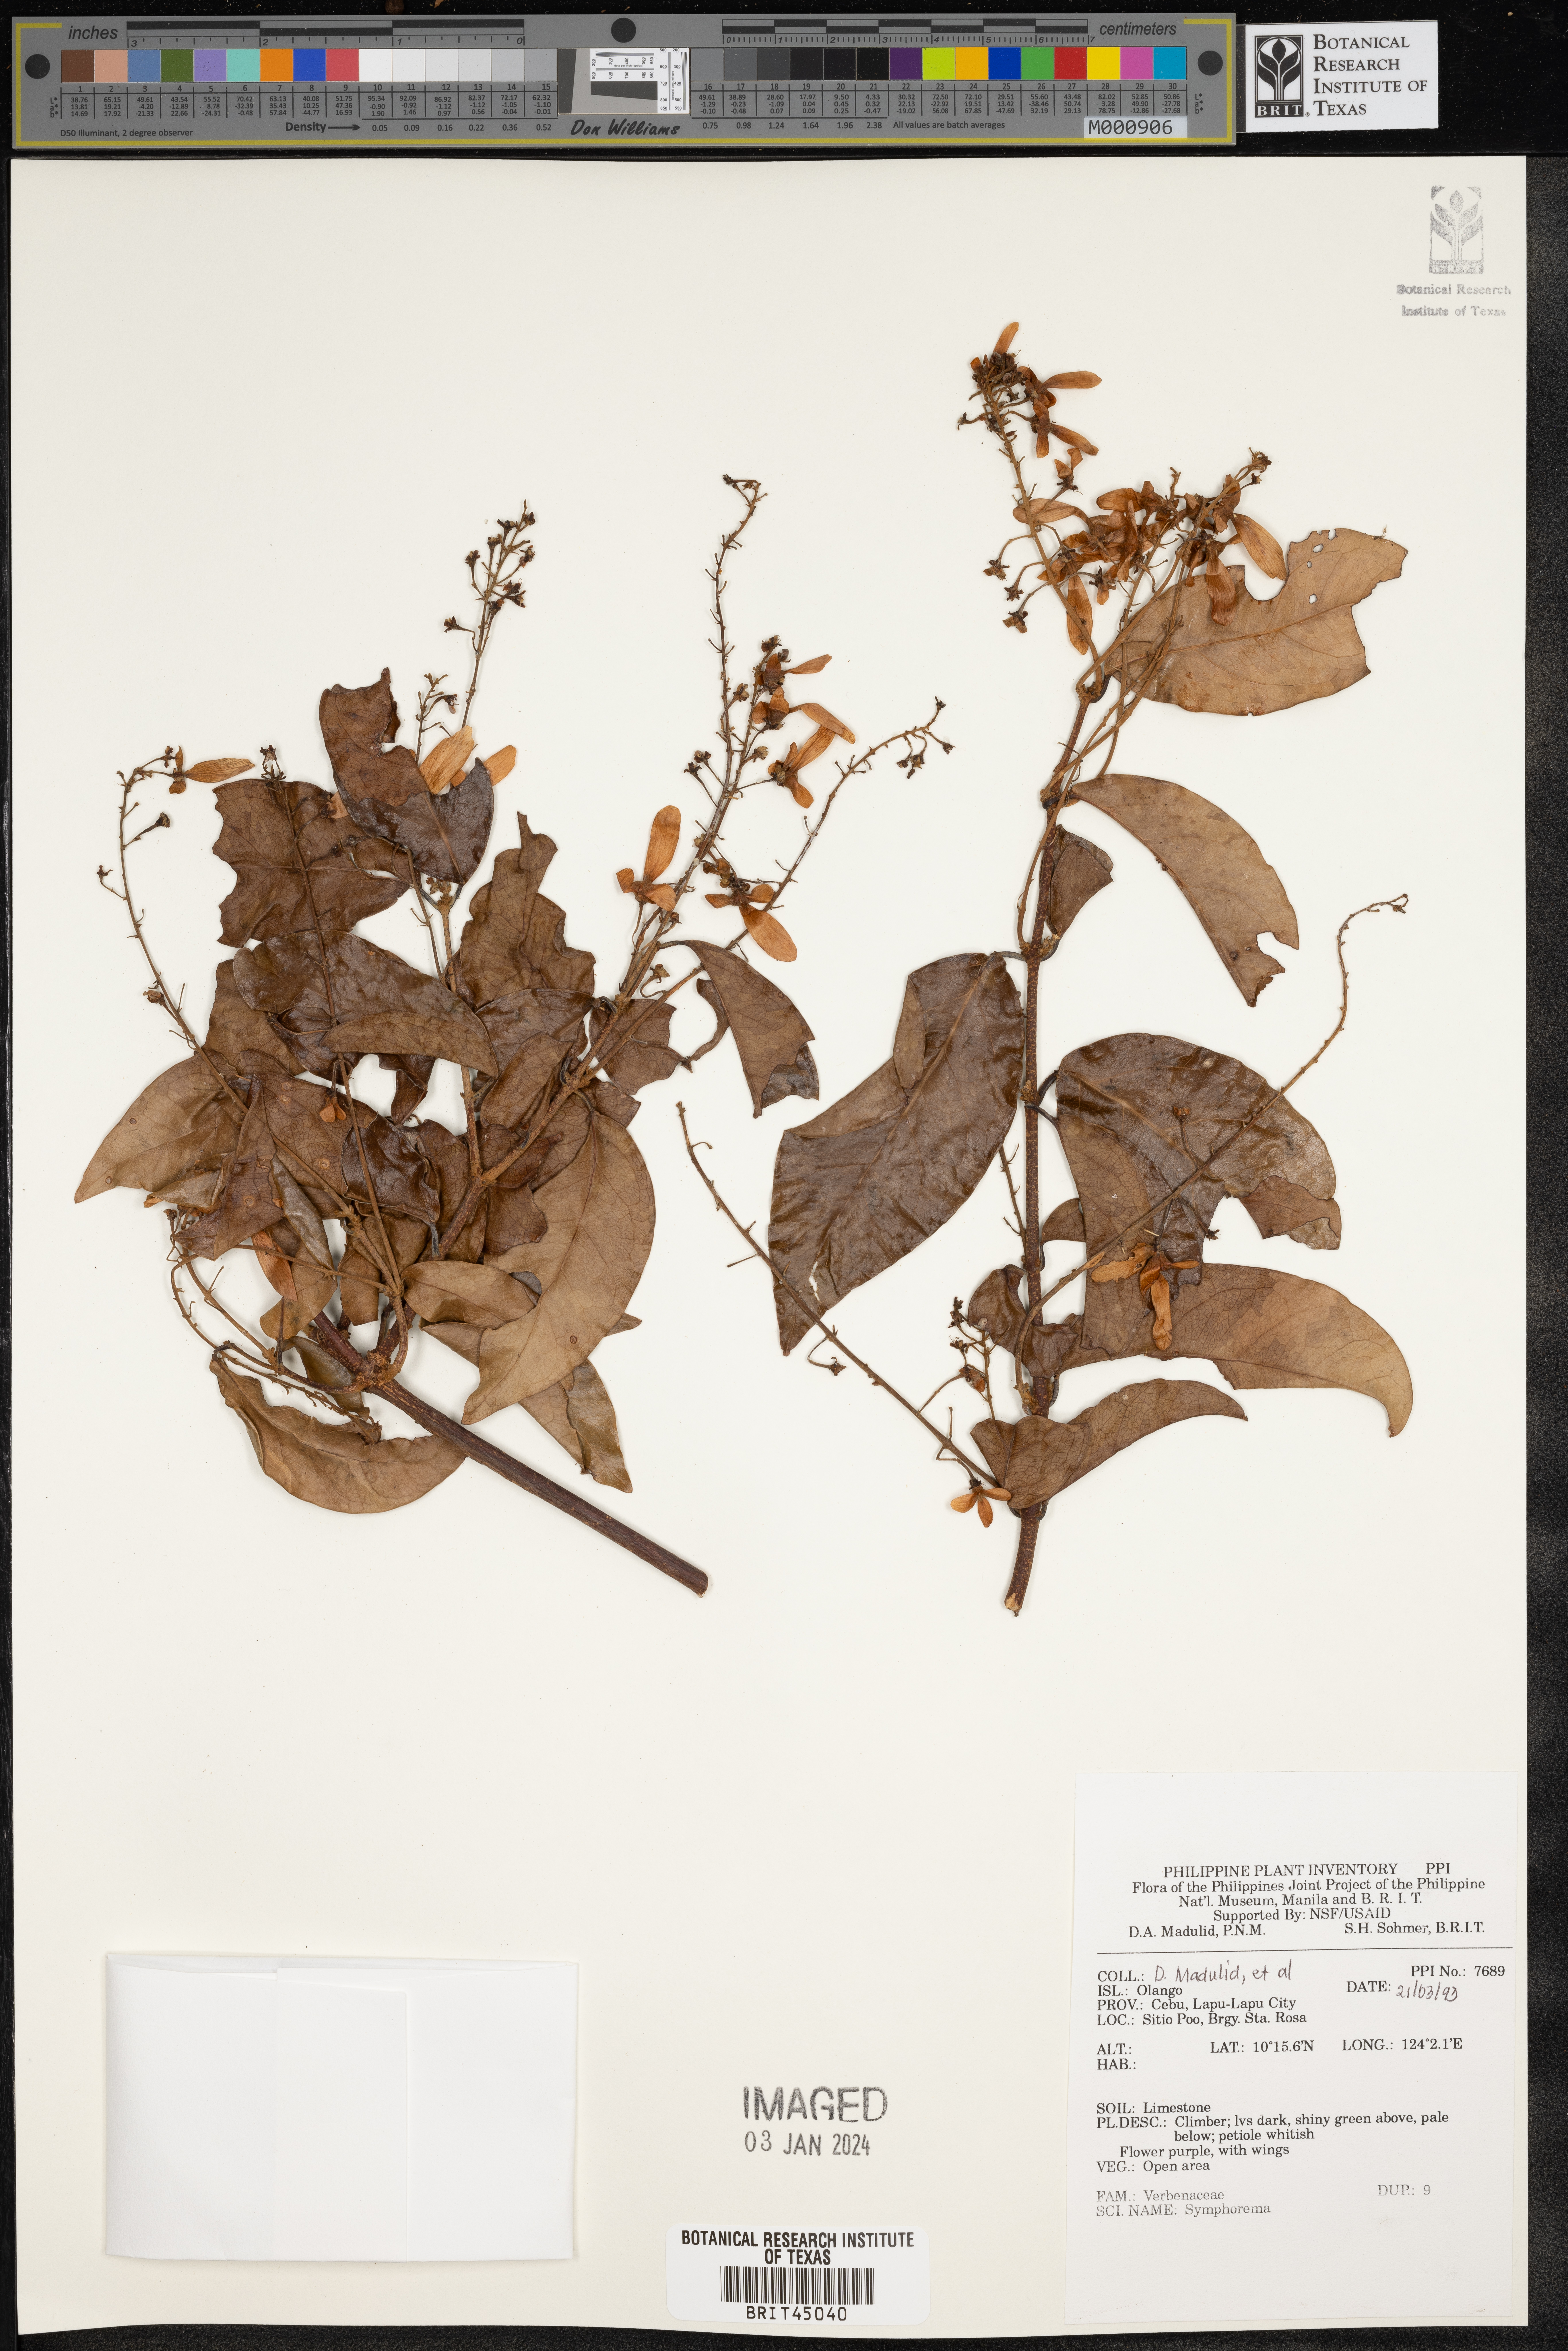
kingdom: Plantae
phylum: Tracheophyta
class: Magnoliopsida
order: Lamiales
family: Lamiaceae
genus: Symphorema
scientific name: Symphorema
